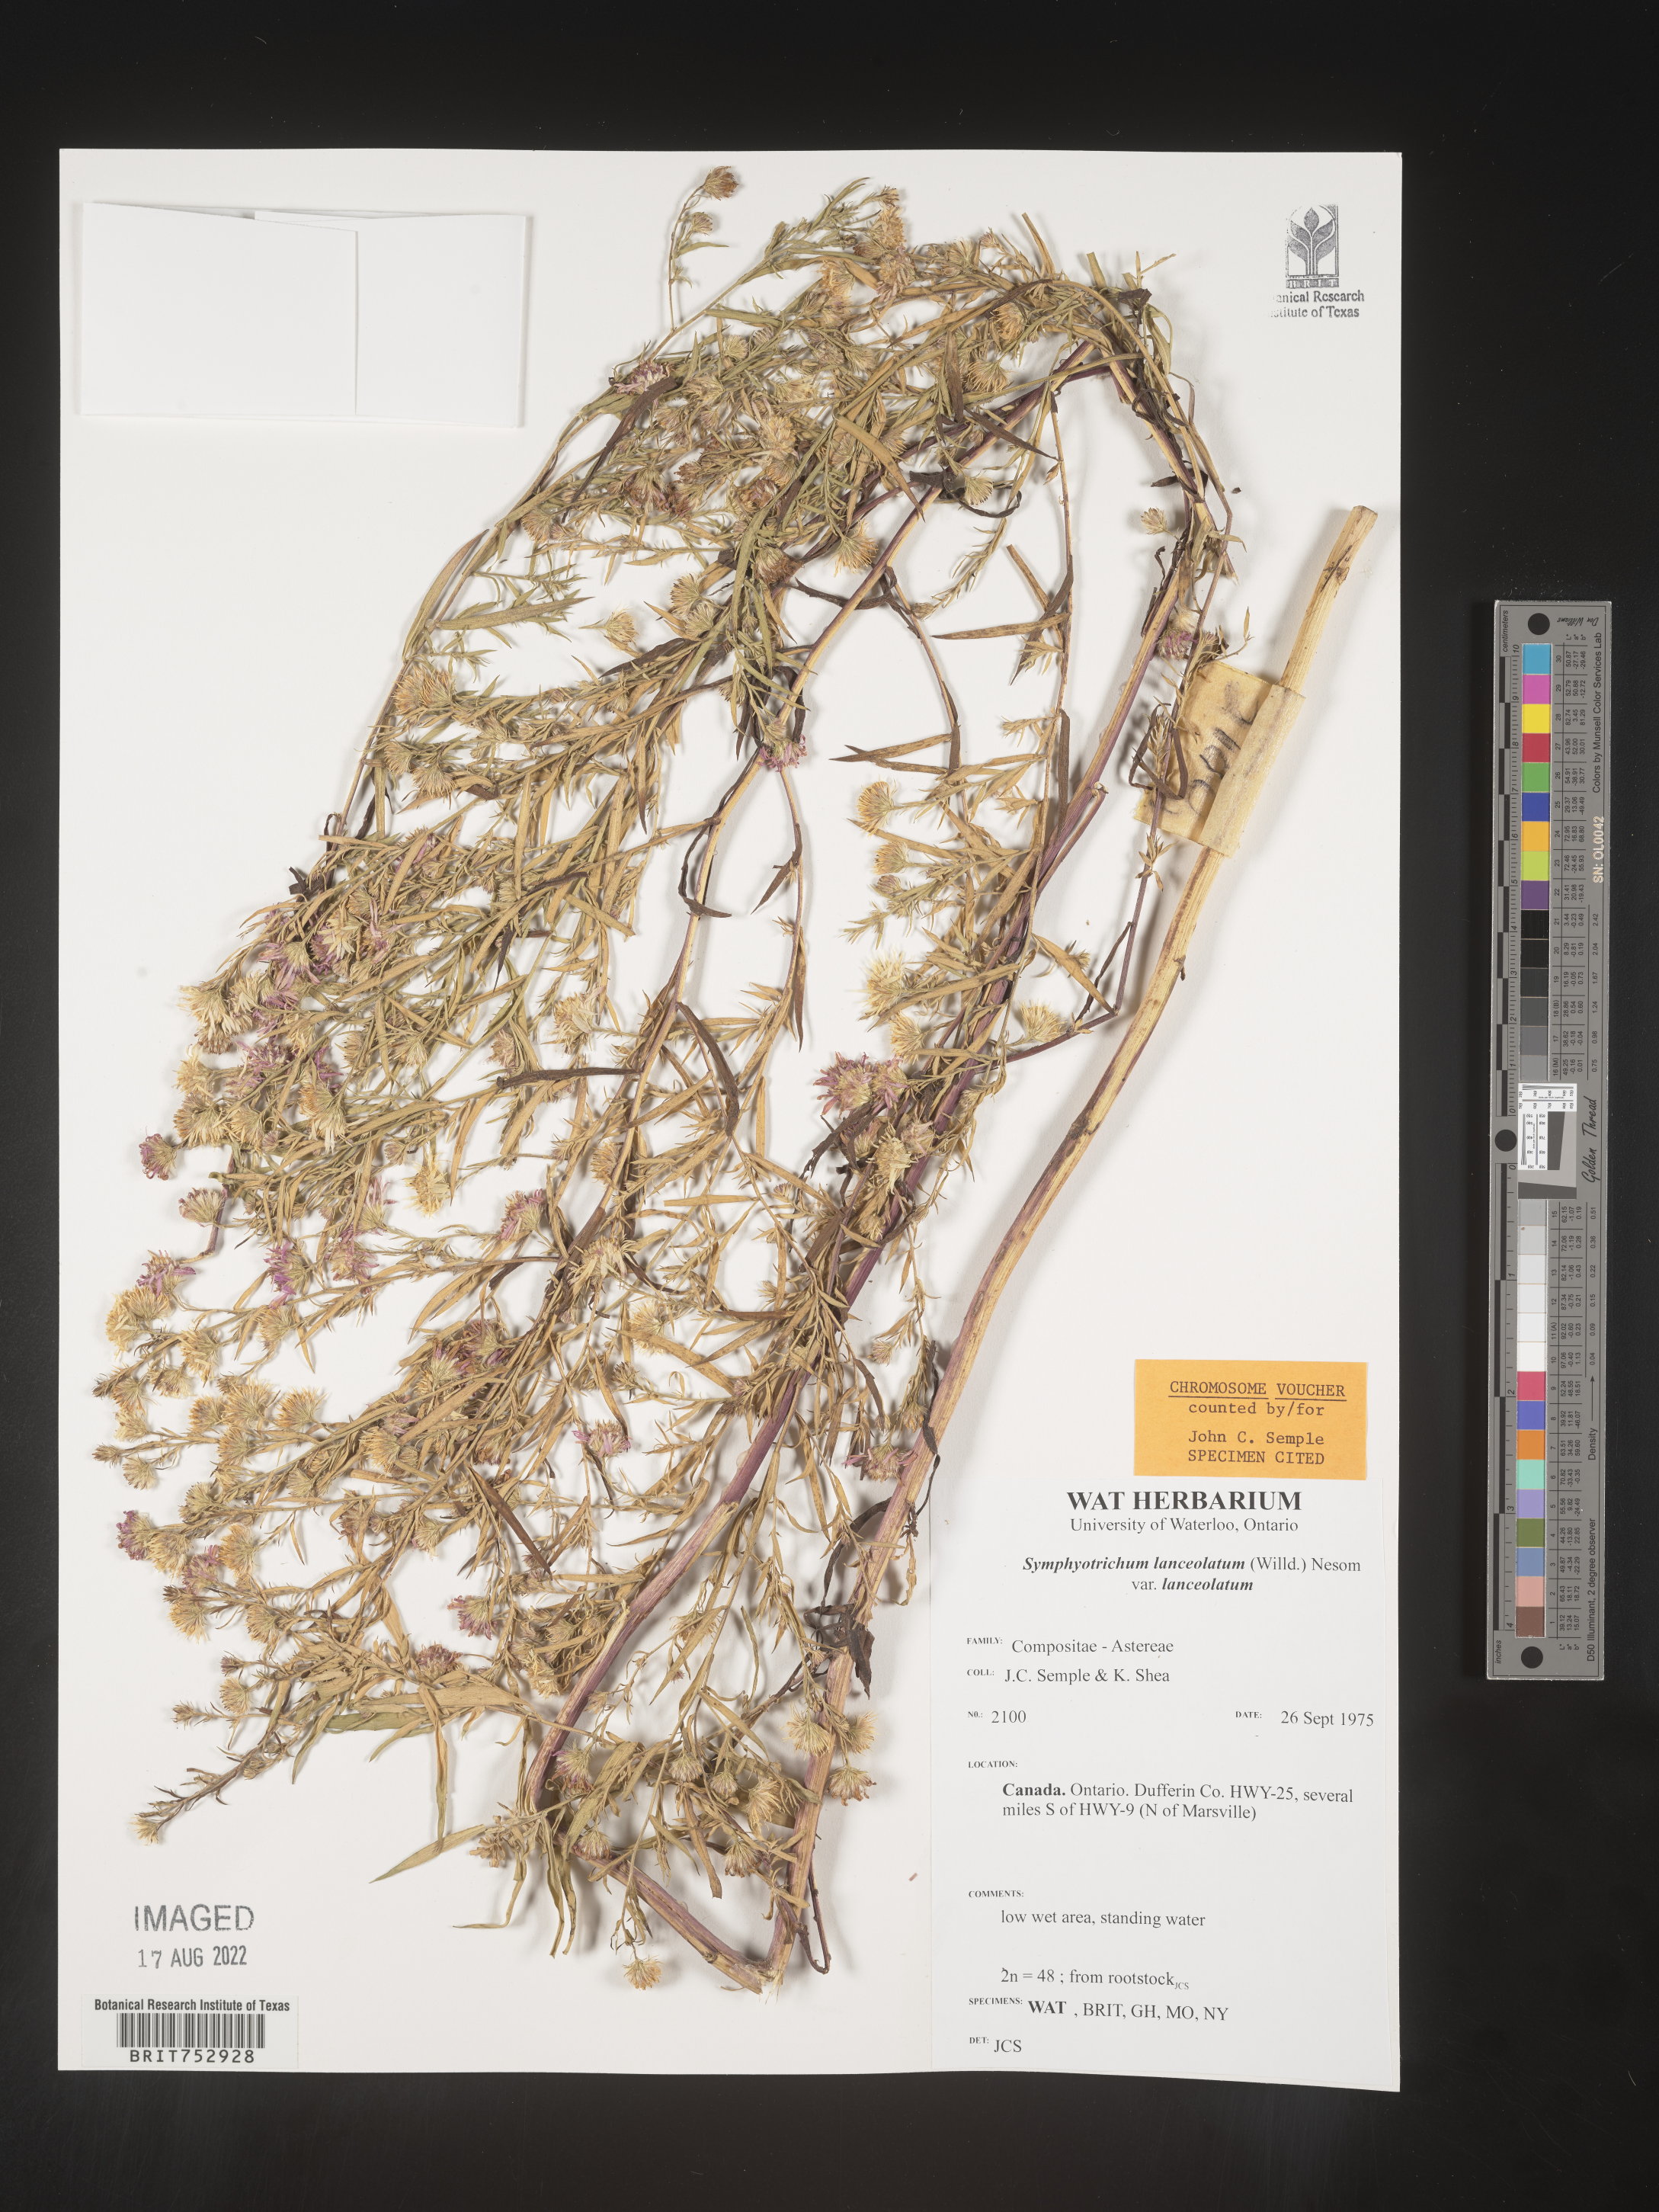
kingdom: Plantae
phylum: Tracheophyta
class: Magnoliopsida
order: Asterales
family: Asteraceae
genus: Symphyotrichum
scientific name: Symphyotrichum lanceolatum
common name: Panicled aster
